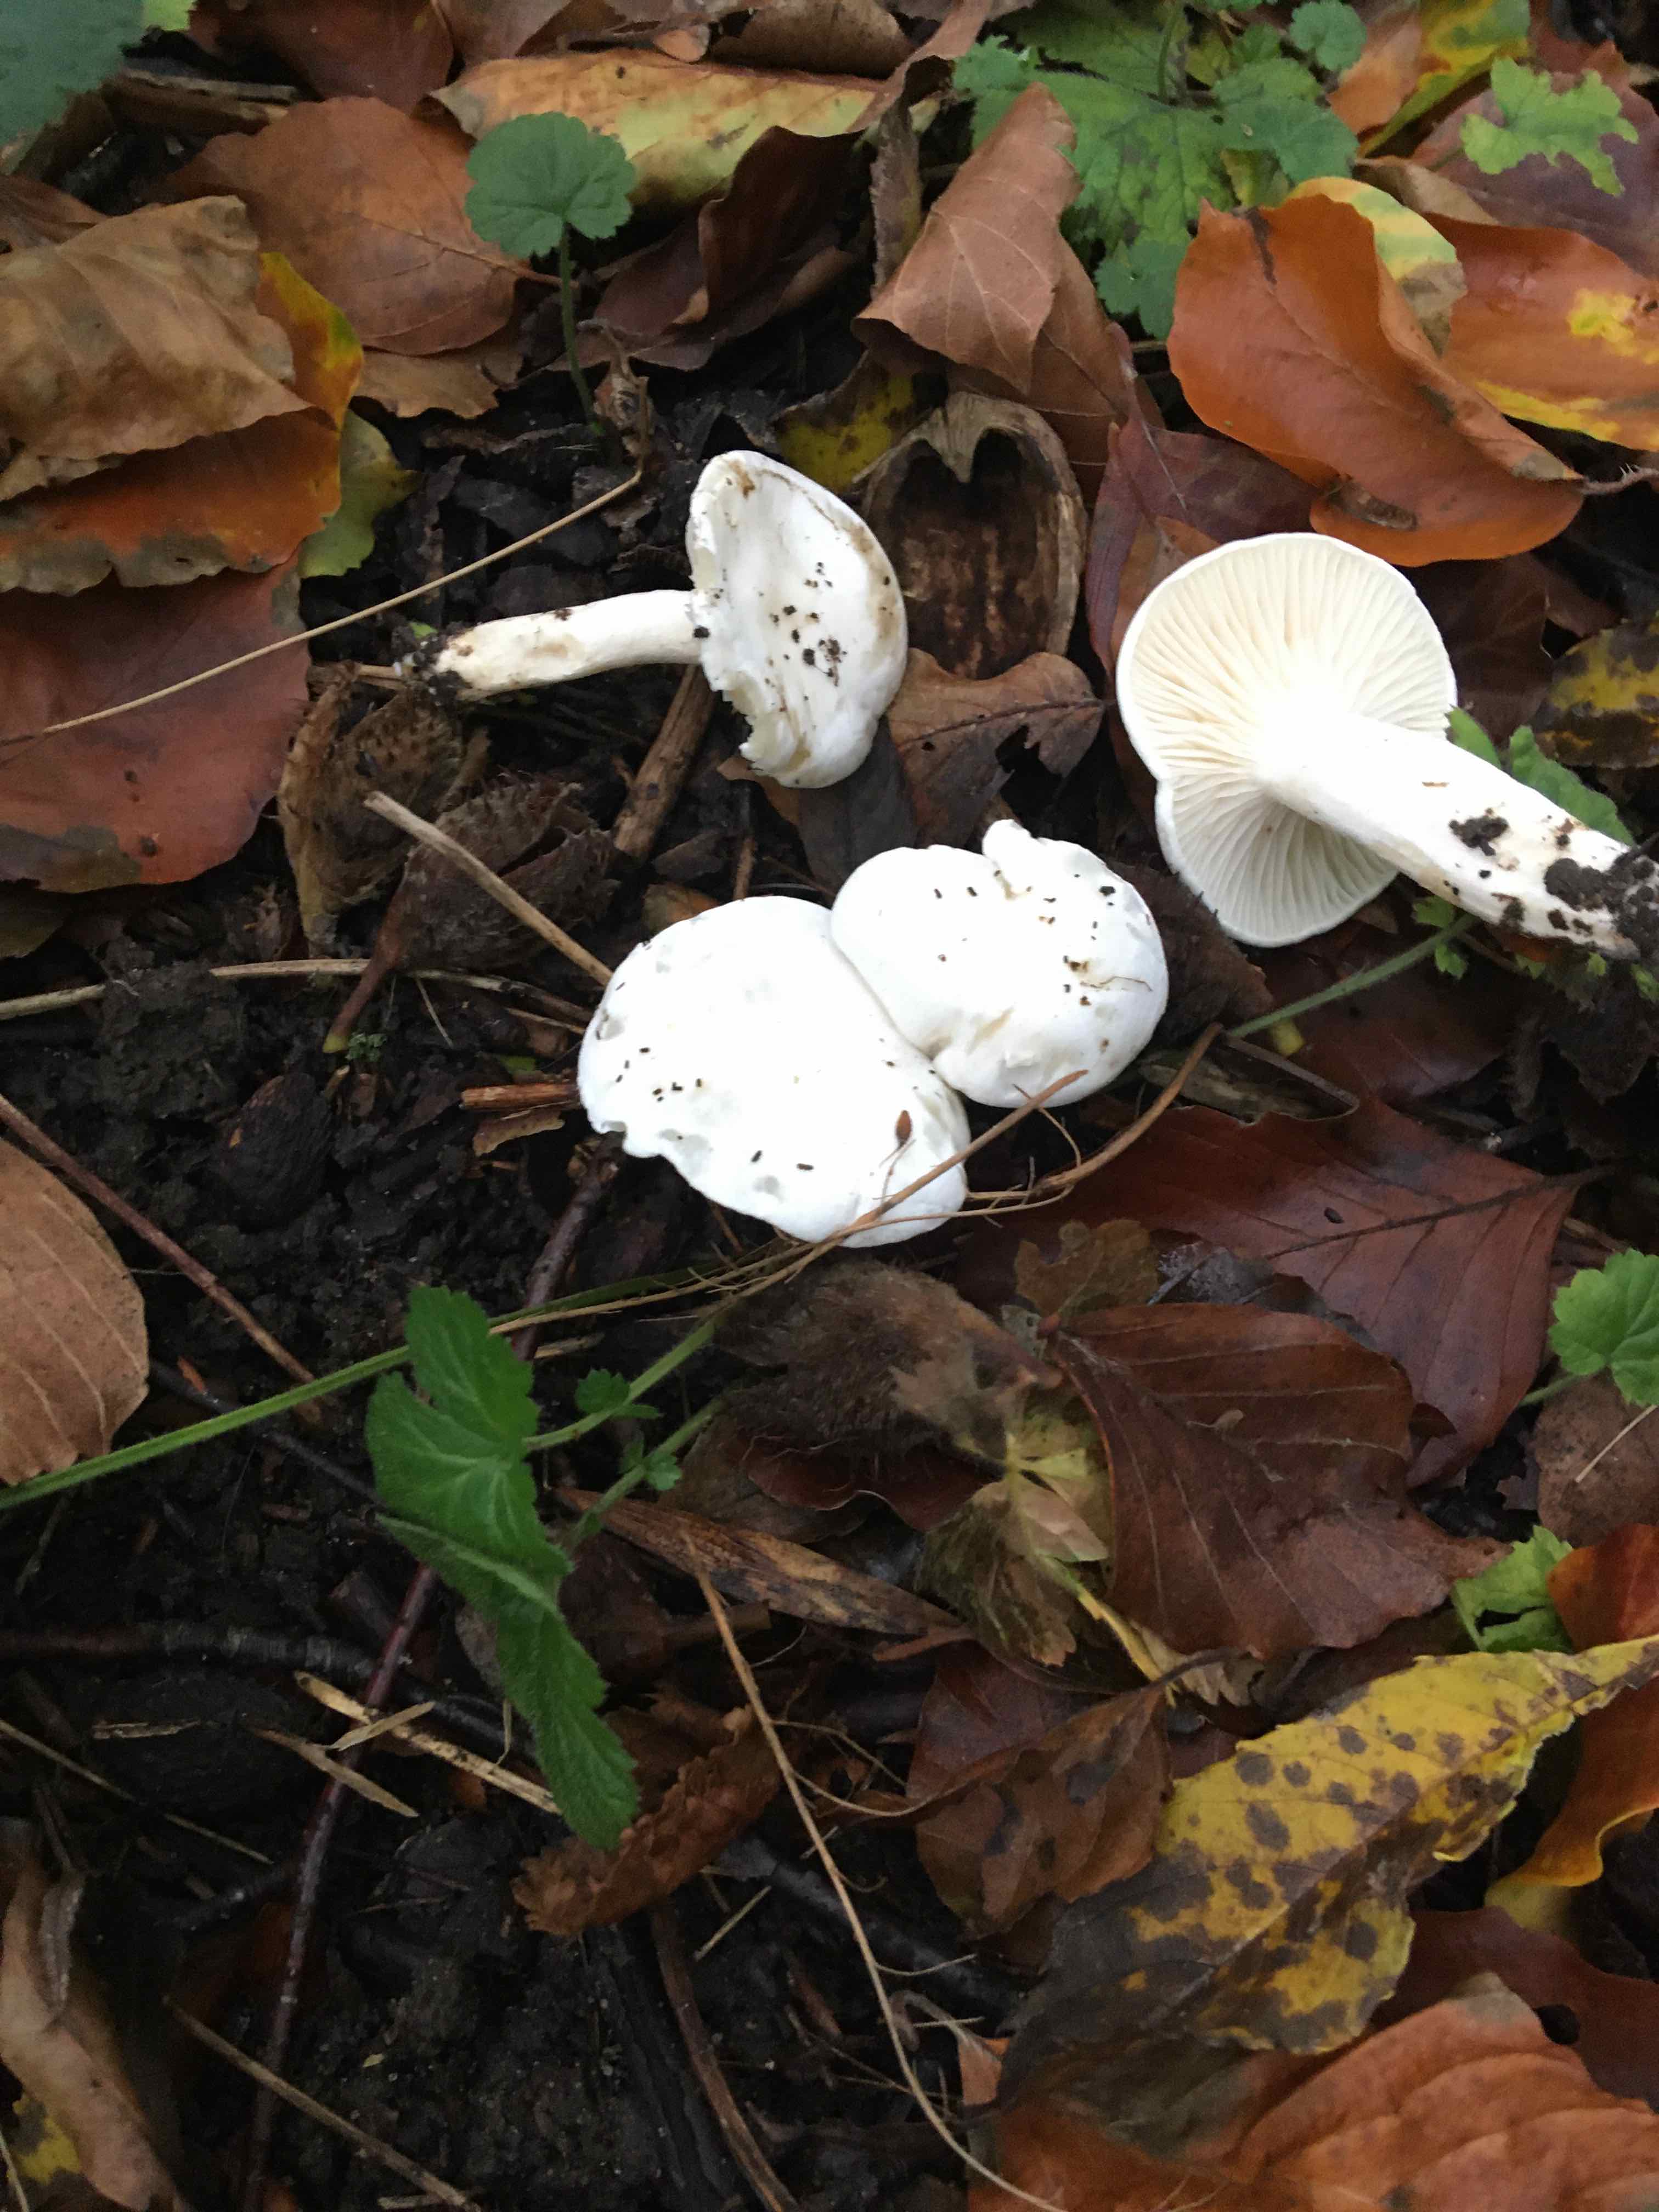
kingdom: Fungi
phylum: Basidiomycota
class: Agaricomycetes
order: Agaricales
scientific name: Agaricales
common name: champignonordenen
